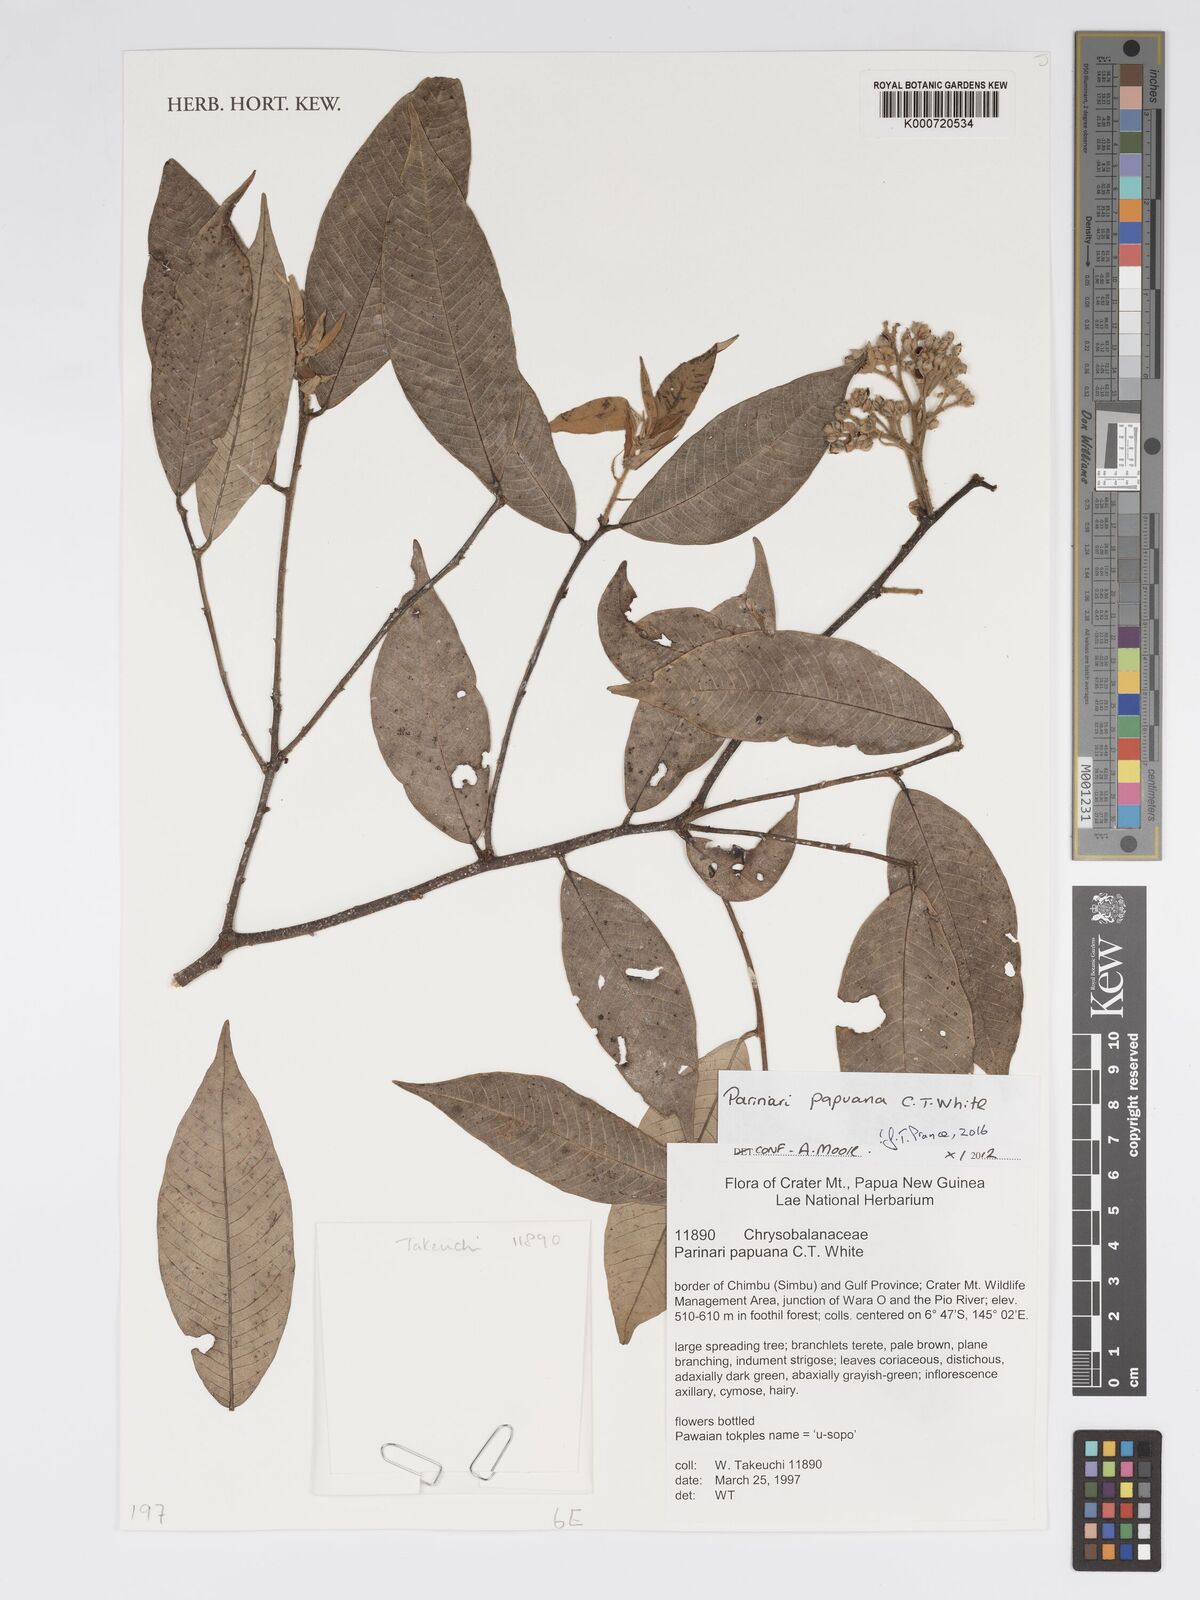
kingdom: Plantae
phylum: Tracheophyta
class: Magnoliopsida
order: Malpighiales
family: Chrysobalanaceae
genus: Parinari
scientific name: Parinari papuana
